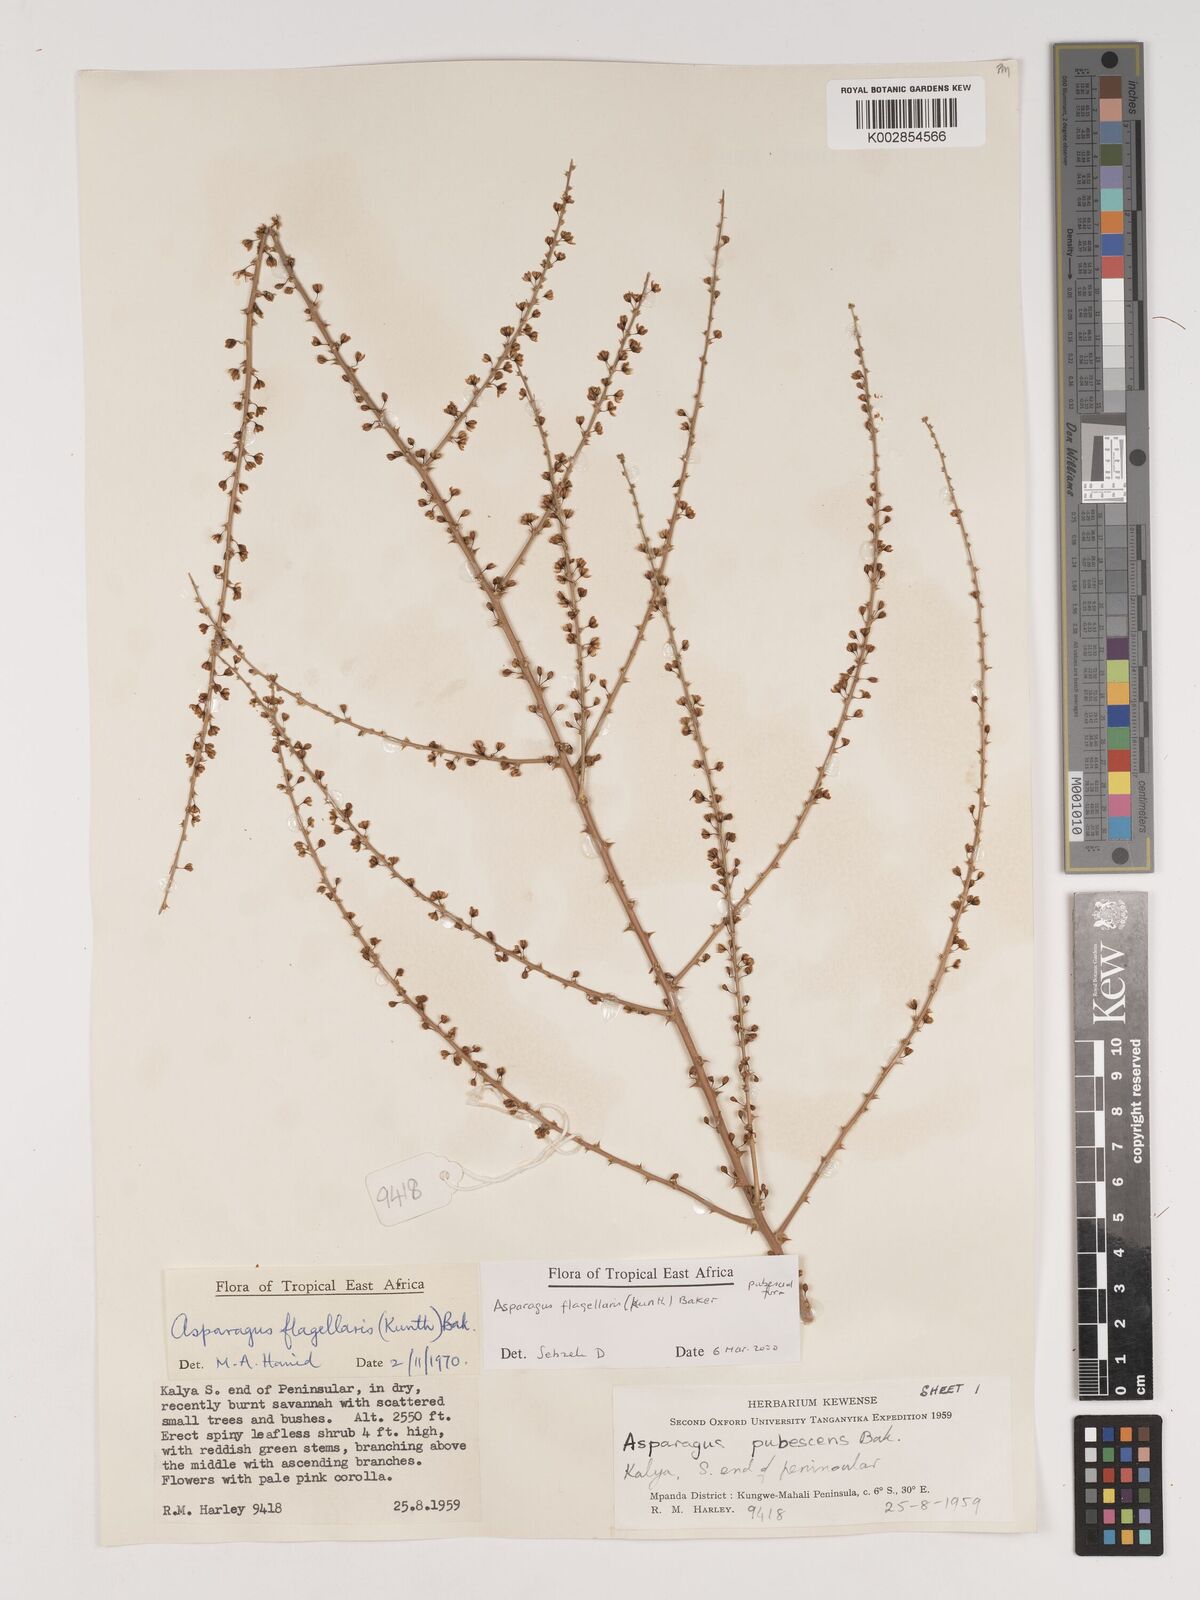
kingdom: Plantae
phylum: Tracheophyta
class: Liliopsida
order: Asparagales
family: Asparagaceae
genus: Asparagus
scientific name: Asparagus flagellaris
